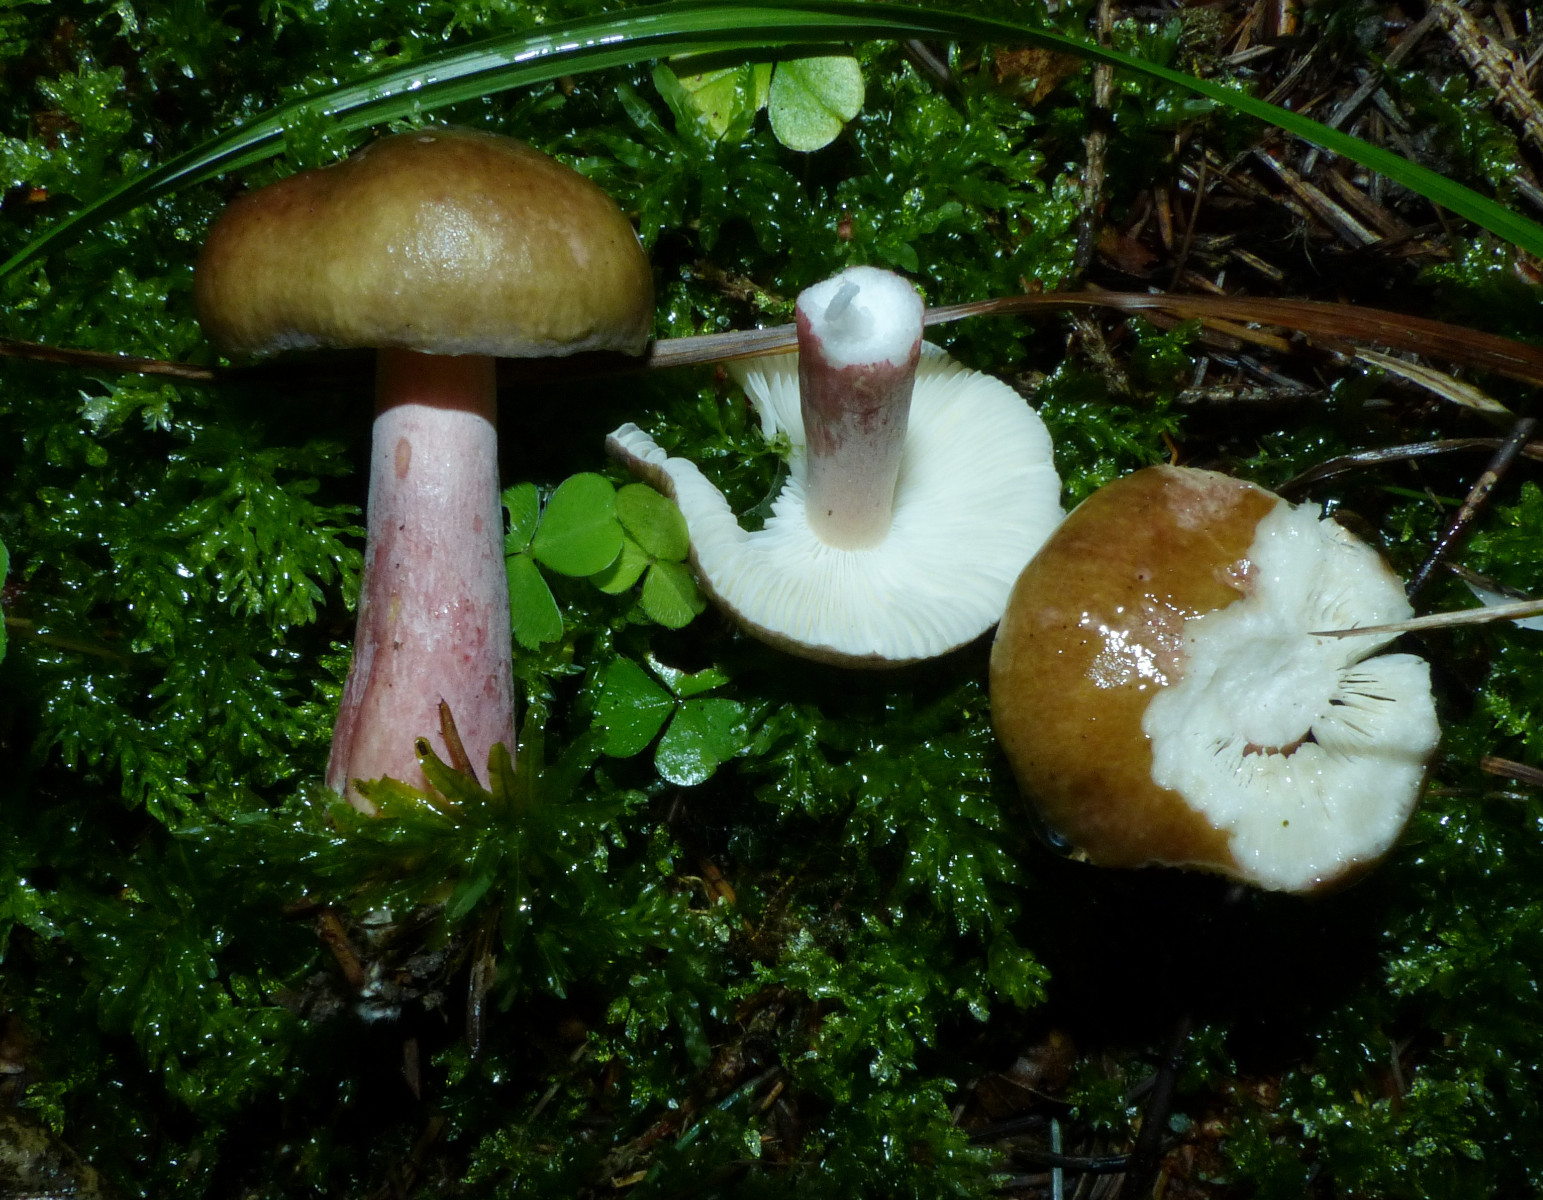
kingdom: Fungi
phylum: Basidiomycota
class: Agaricomycetes
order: Russulales
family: Russulaceae
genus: Russula
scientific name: Russula queletii
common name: Quélets skørhat
